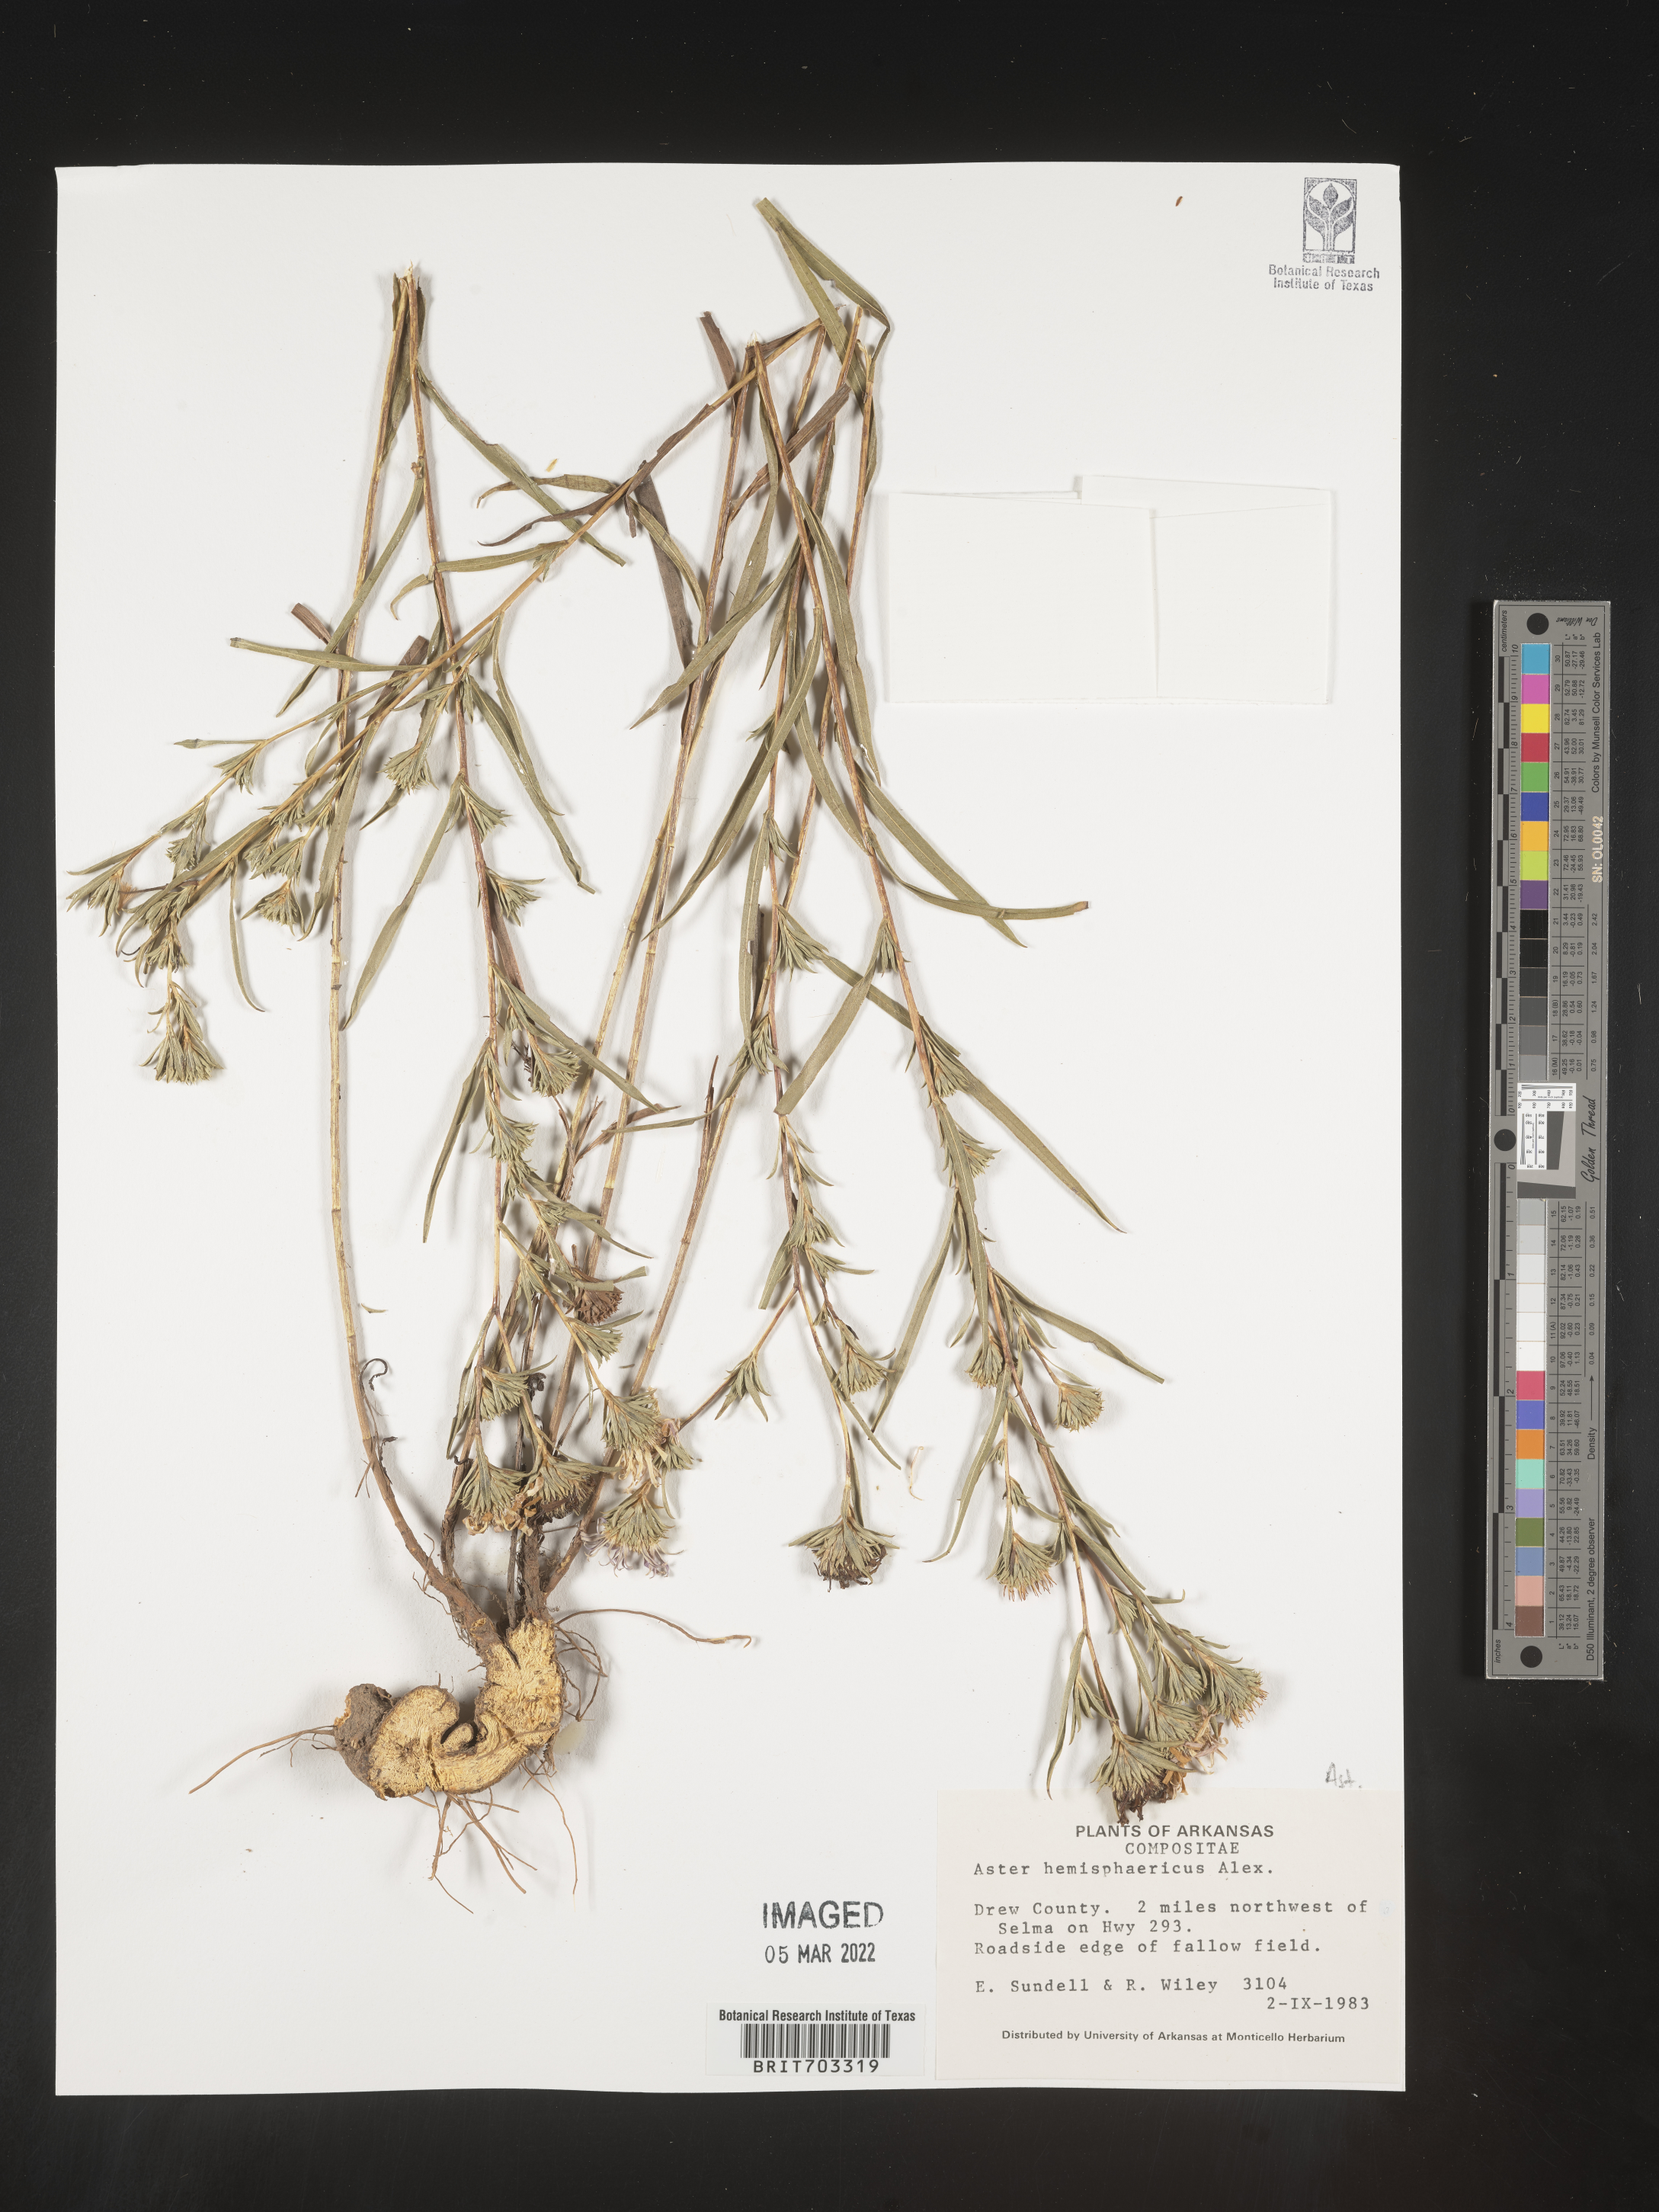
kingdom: Plantae
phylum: Tracheophyta
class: Magnoliopsida
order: Asterales
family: Asteraceae
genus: Eurybia
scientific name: Eurybia hemispherica
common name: Showy aster
